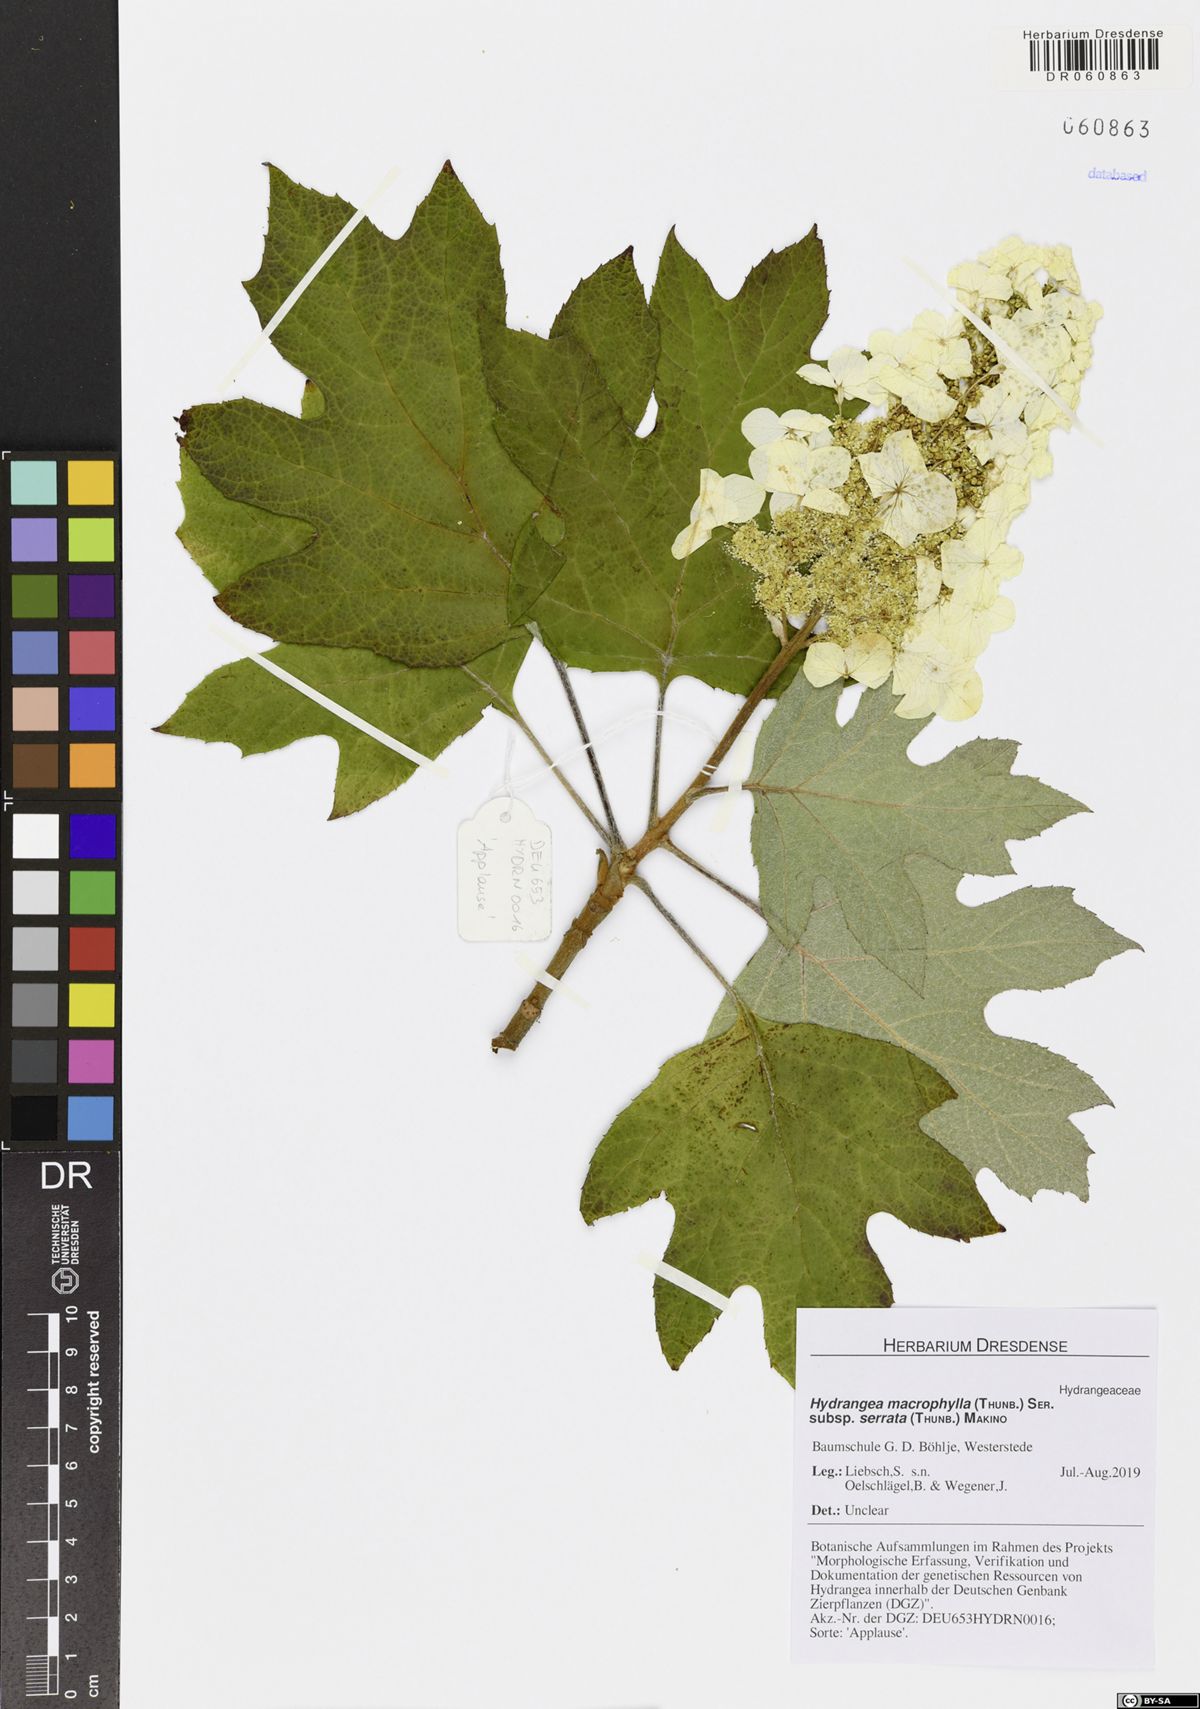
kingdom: Plantae
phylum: Tracheophyta
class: Magnoliopsida
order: Cornales
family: Hydrangeaceae
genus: Hydrangea
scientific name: Hydrangea serrata
